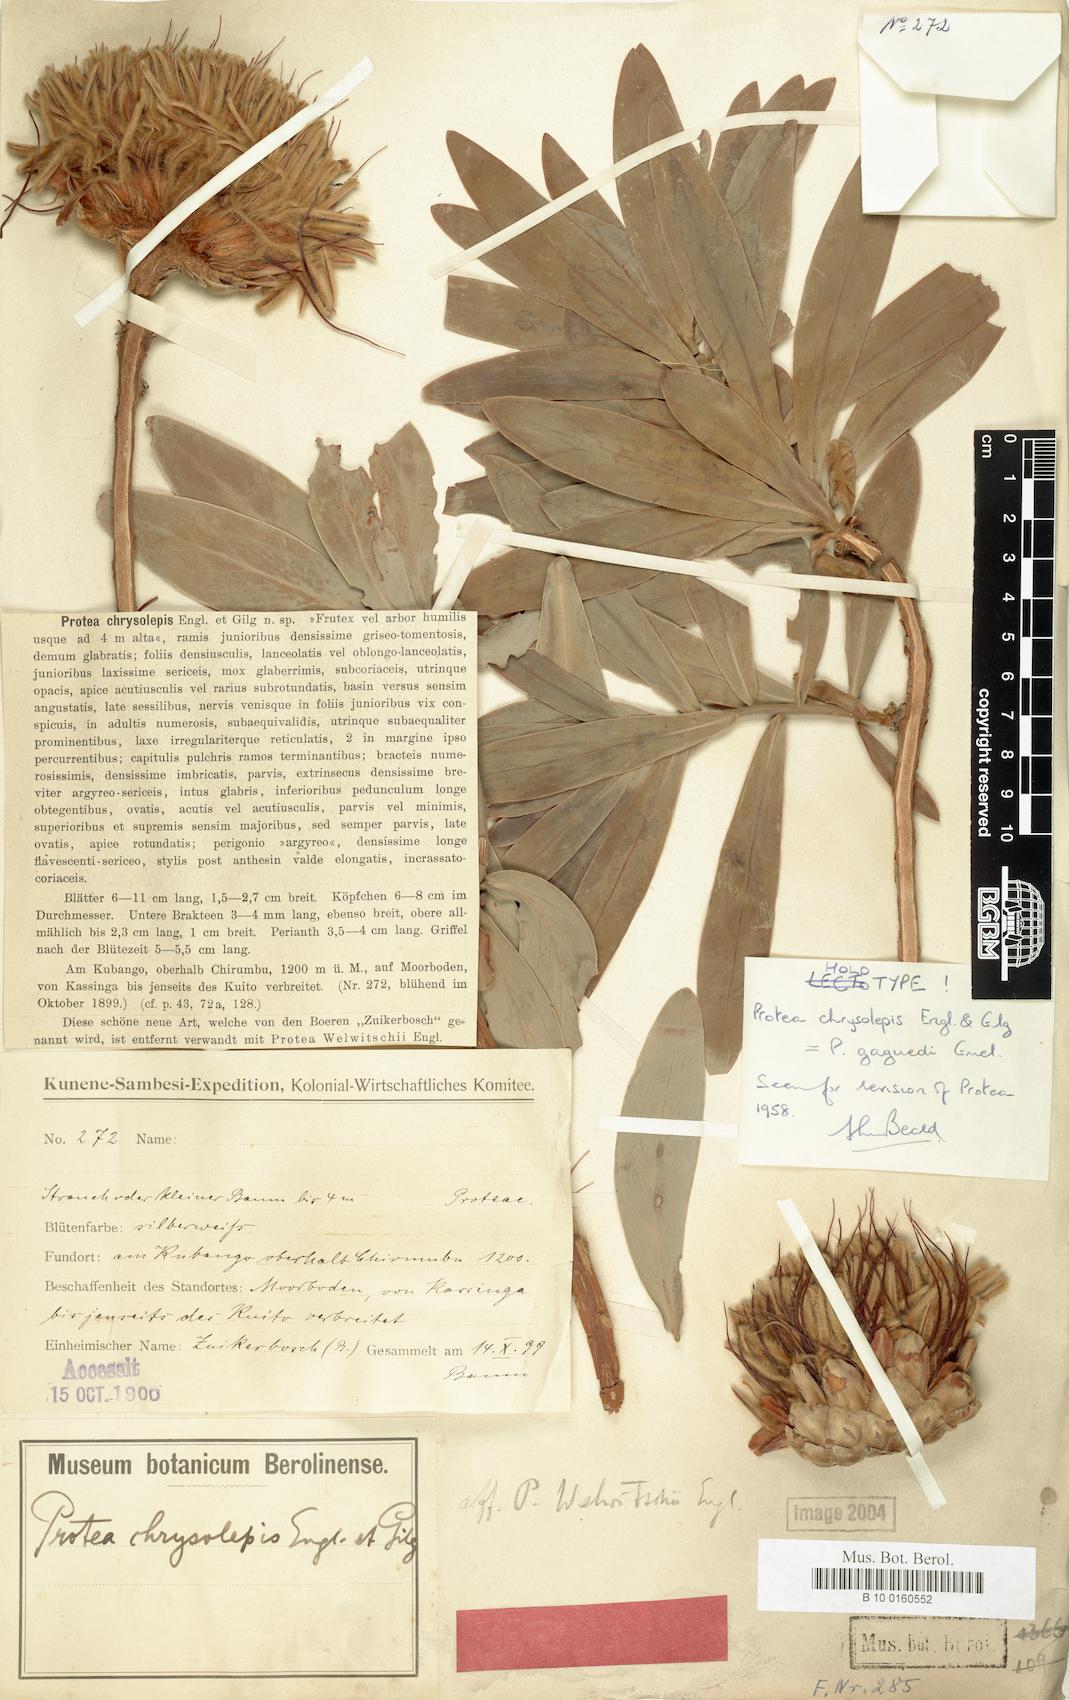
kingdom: Plantae
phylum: Tracheophyta
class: Magnoliopsida
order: Proteales
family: Proteaceae
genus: Protea
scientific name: Protea gaguedi
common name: African protea
